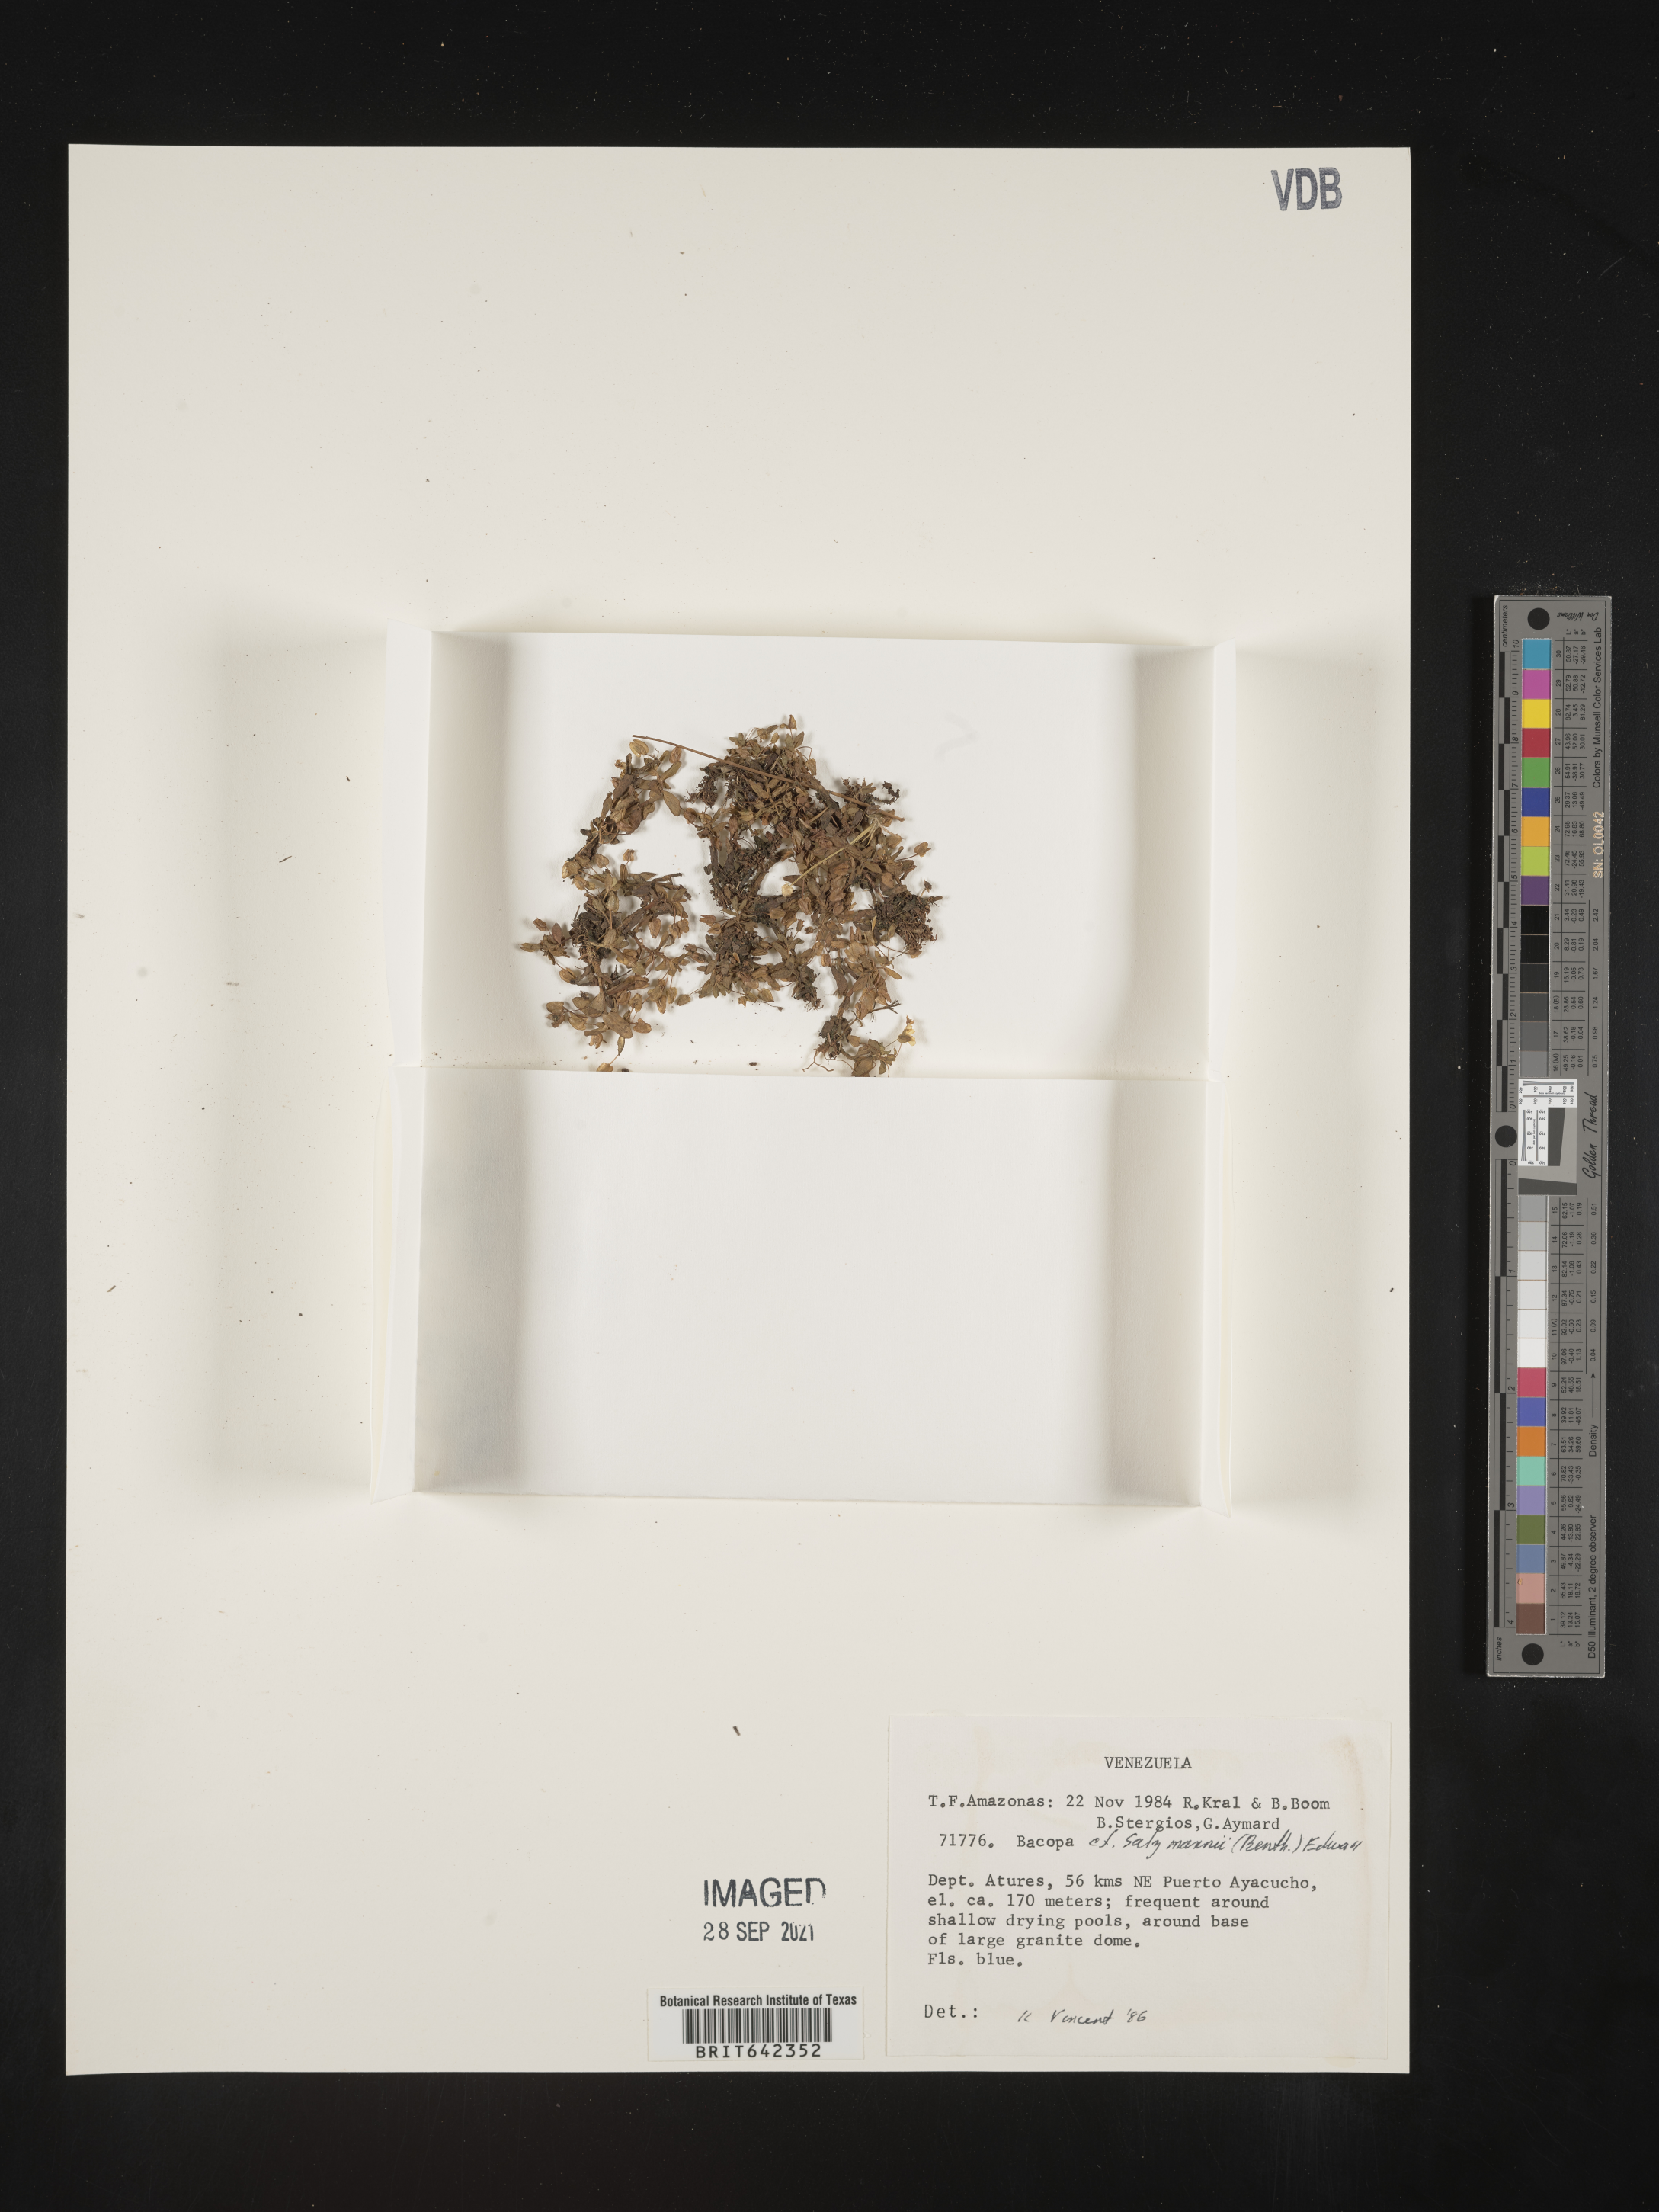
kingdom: Plantae
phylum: Tracheophyta
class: Magnoliopsida
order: Lamiales
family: Plantaginaceae
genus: Bacopa
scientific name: Bacopa
